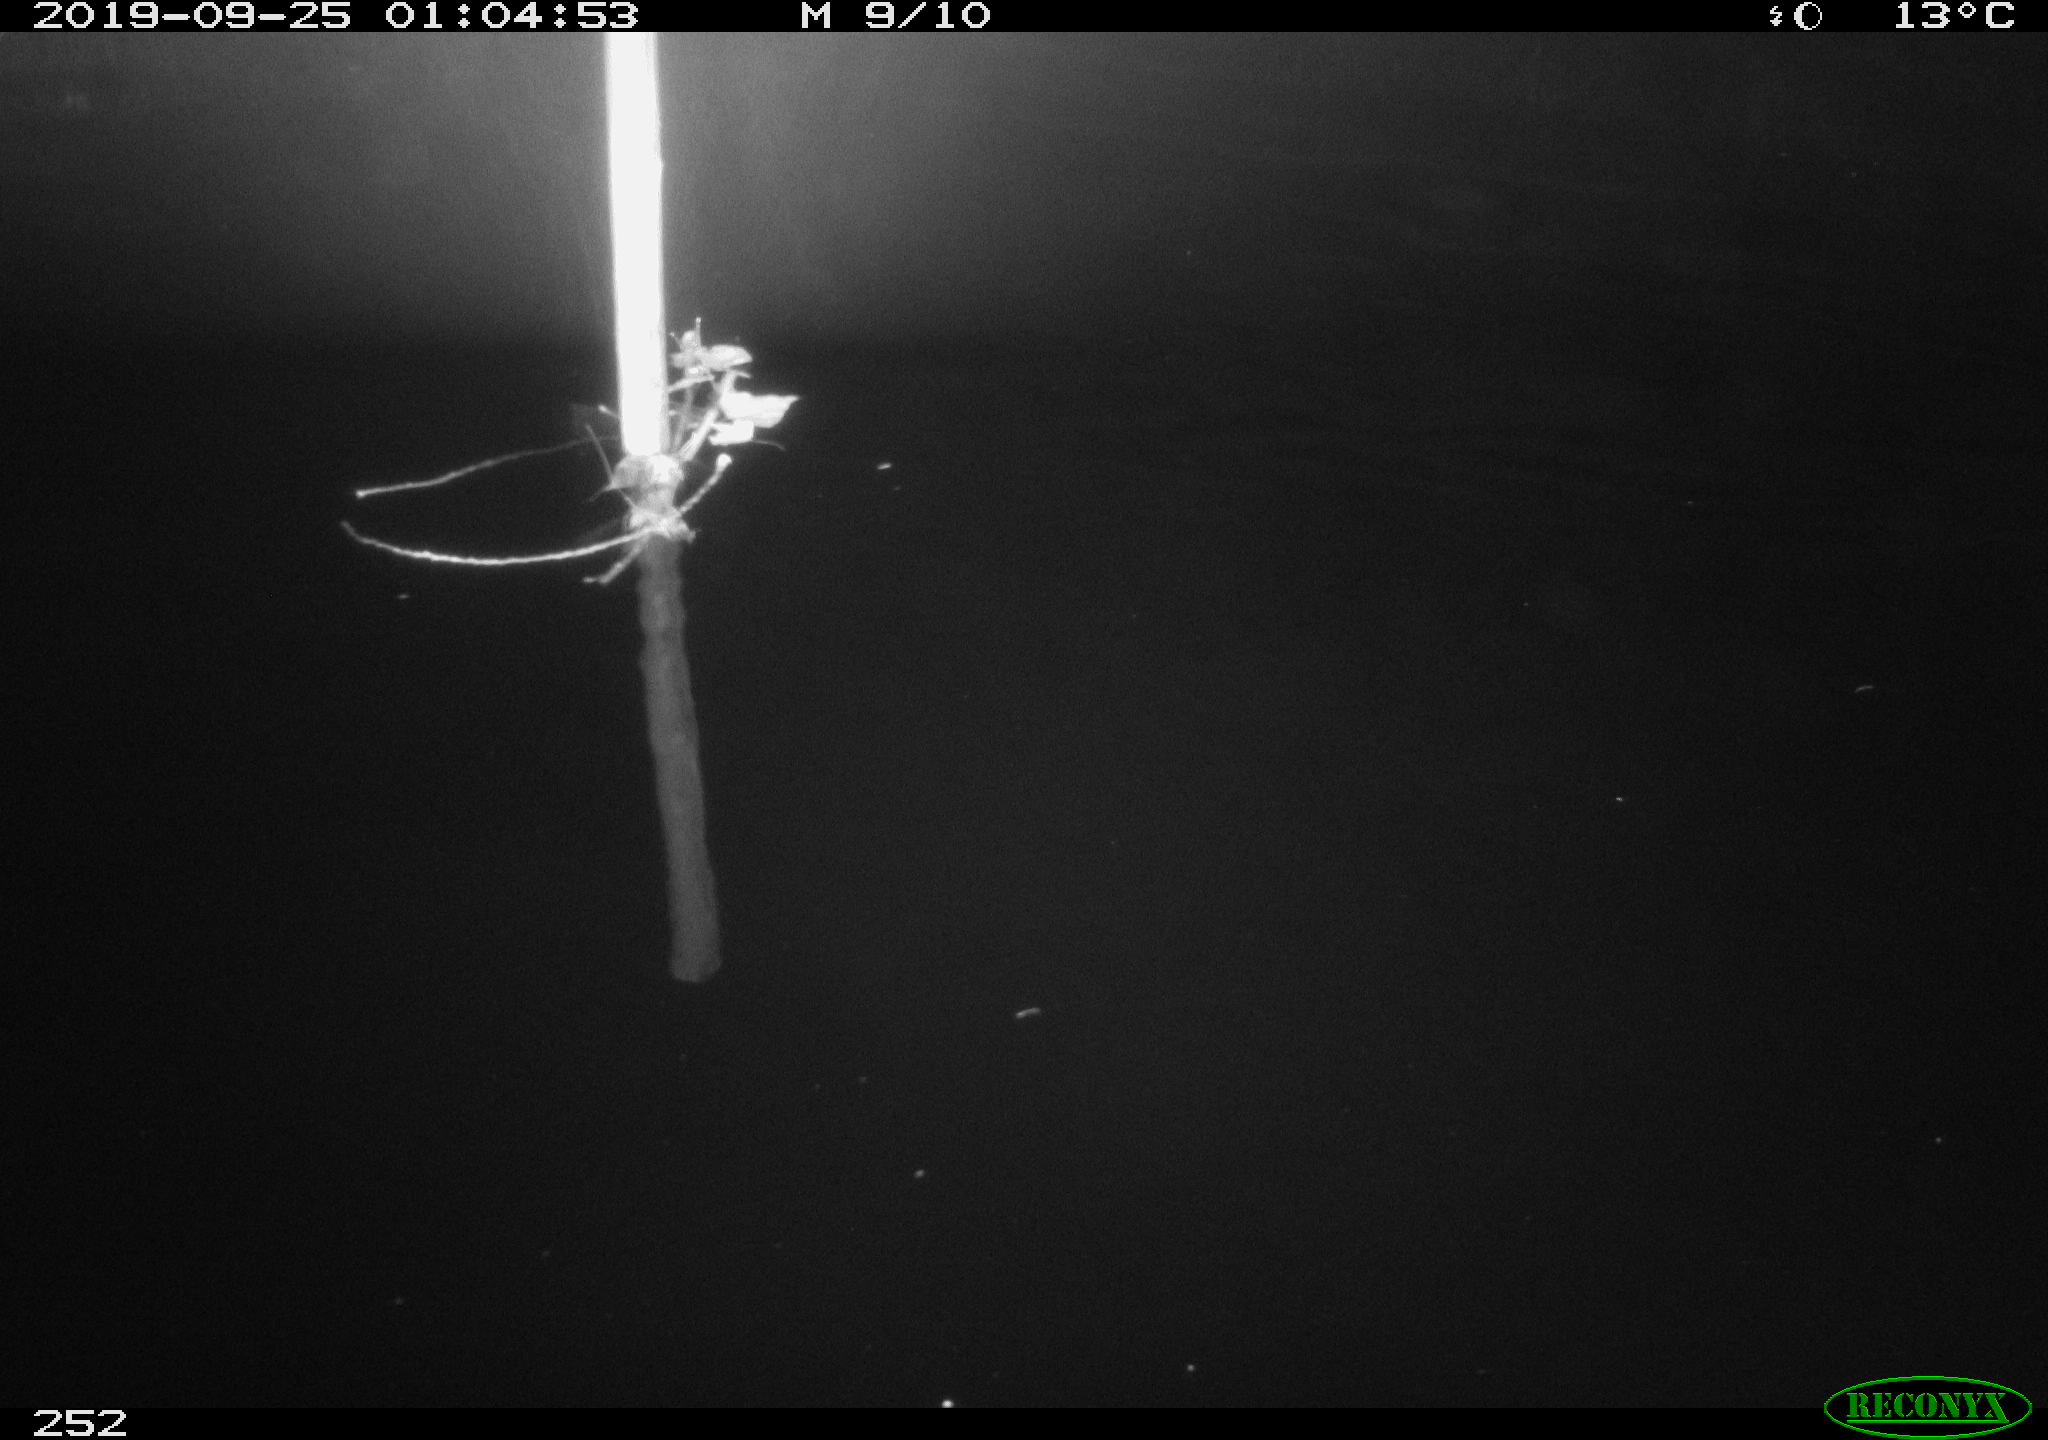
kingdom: Animalia
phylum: Chordata
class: Aves
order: Anseriformes
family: Anatidae
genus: Anas
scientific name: Anas platyrhynchos
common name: Mallard
